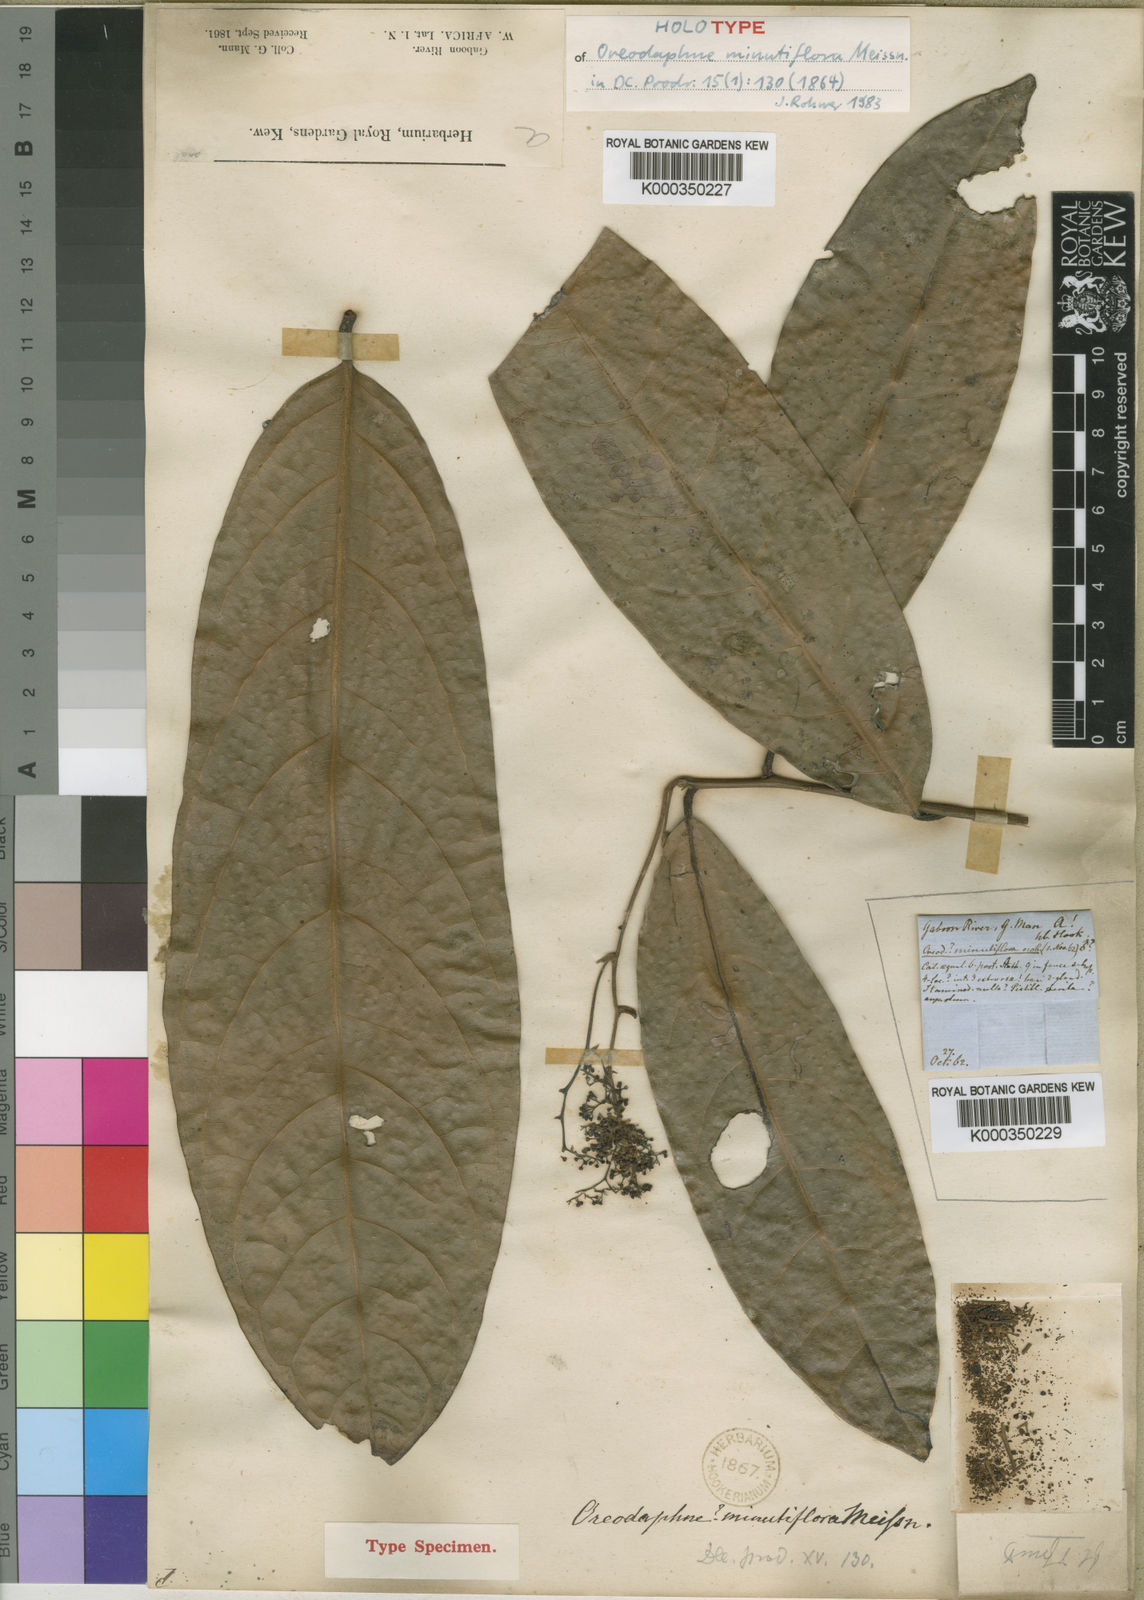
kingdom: Plantae
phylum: Tracheophyta
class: Magnoliopsida
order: Laurales
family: Lauraceae
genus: Beilschmiedia
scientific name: Beilschmiedia
